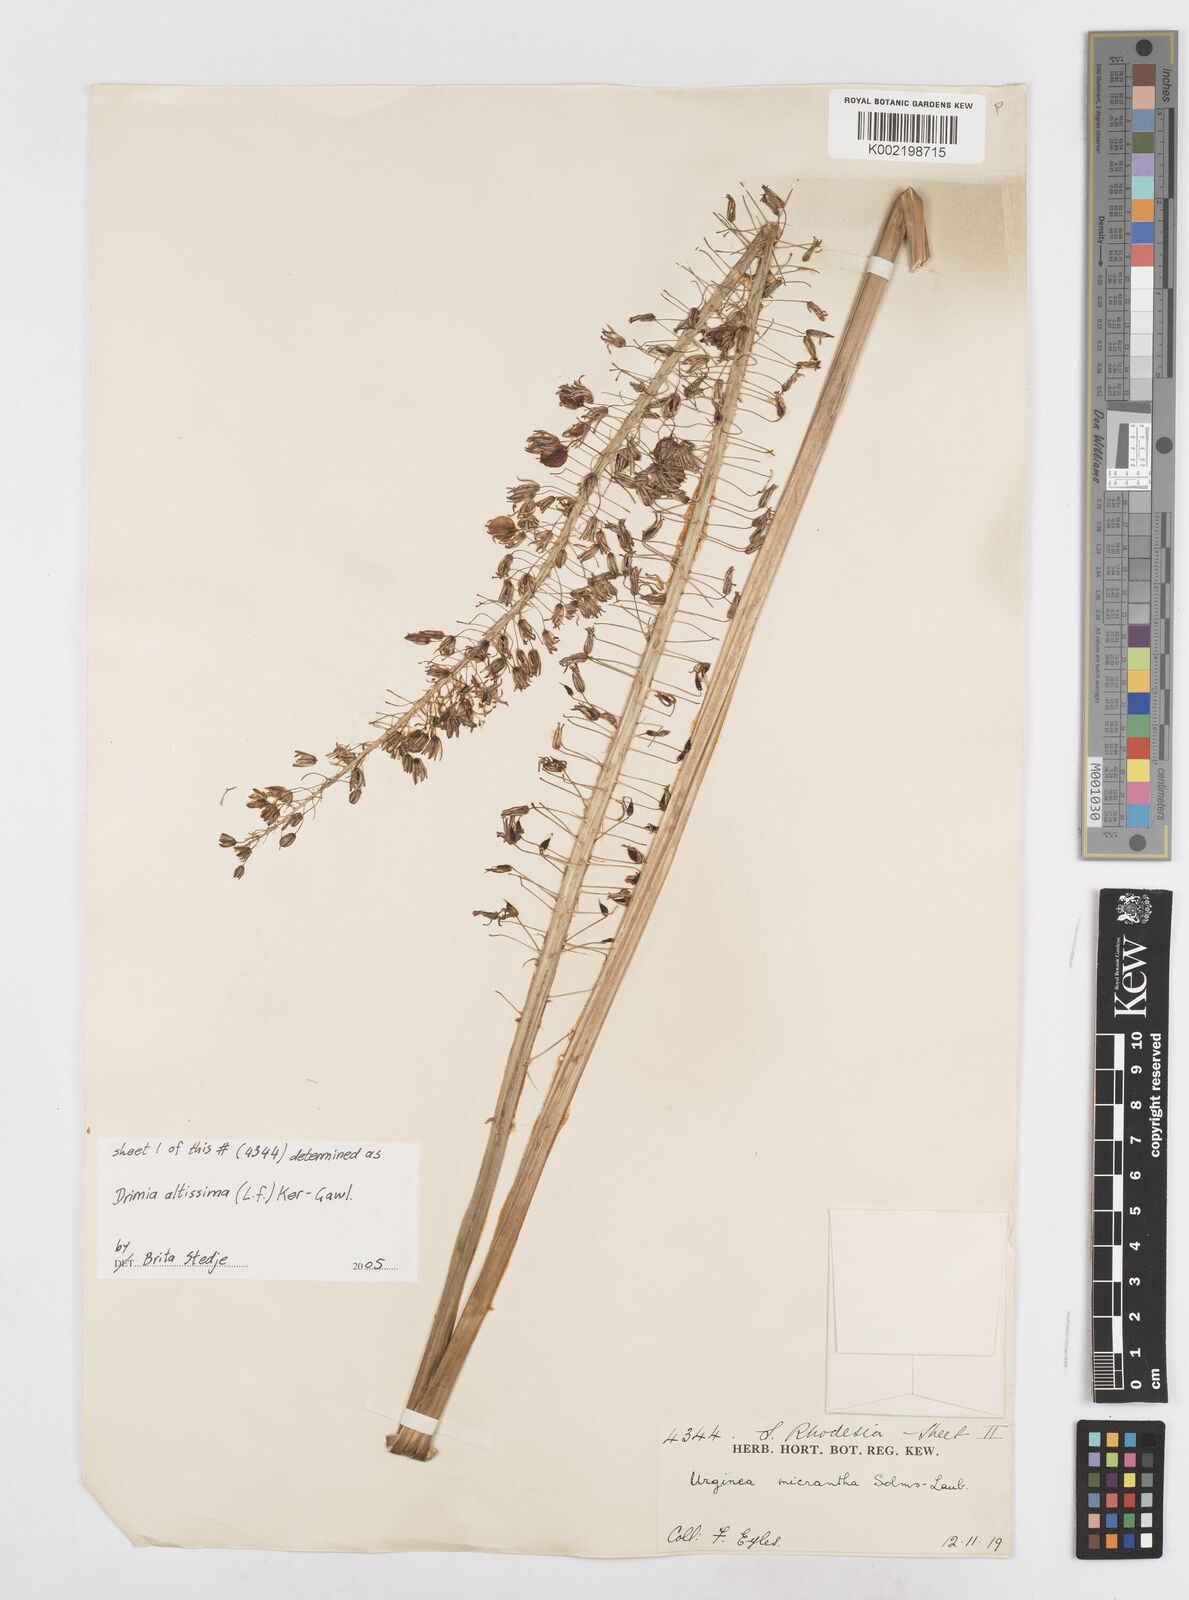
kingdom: Plantae
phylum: Tracheophyta
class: Liliopsida
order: Asparagales
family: Asparagaceae
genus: Drimia
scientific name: Drimia
